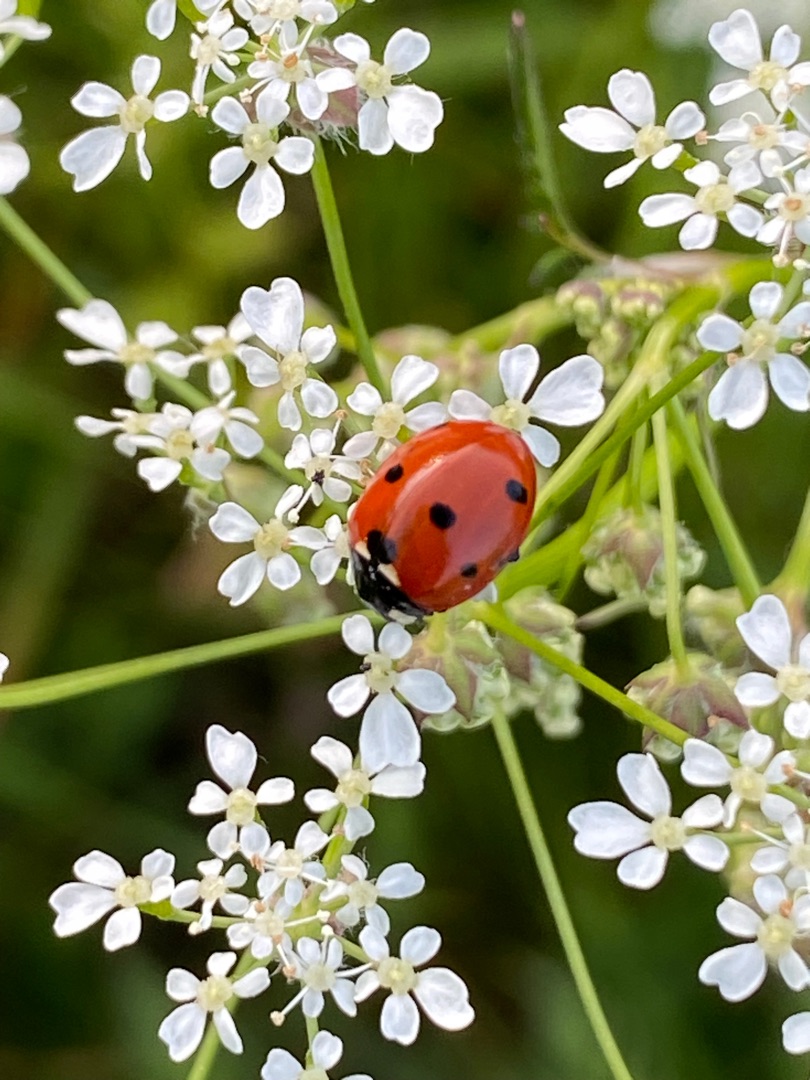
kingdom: Animalia
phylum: Arthropoda
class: Insecta
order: Coleoptera
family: Coccinellidae
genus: Coccinella
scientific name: Coccinella septempunctata
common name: Syvplettet mariehøne
